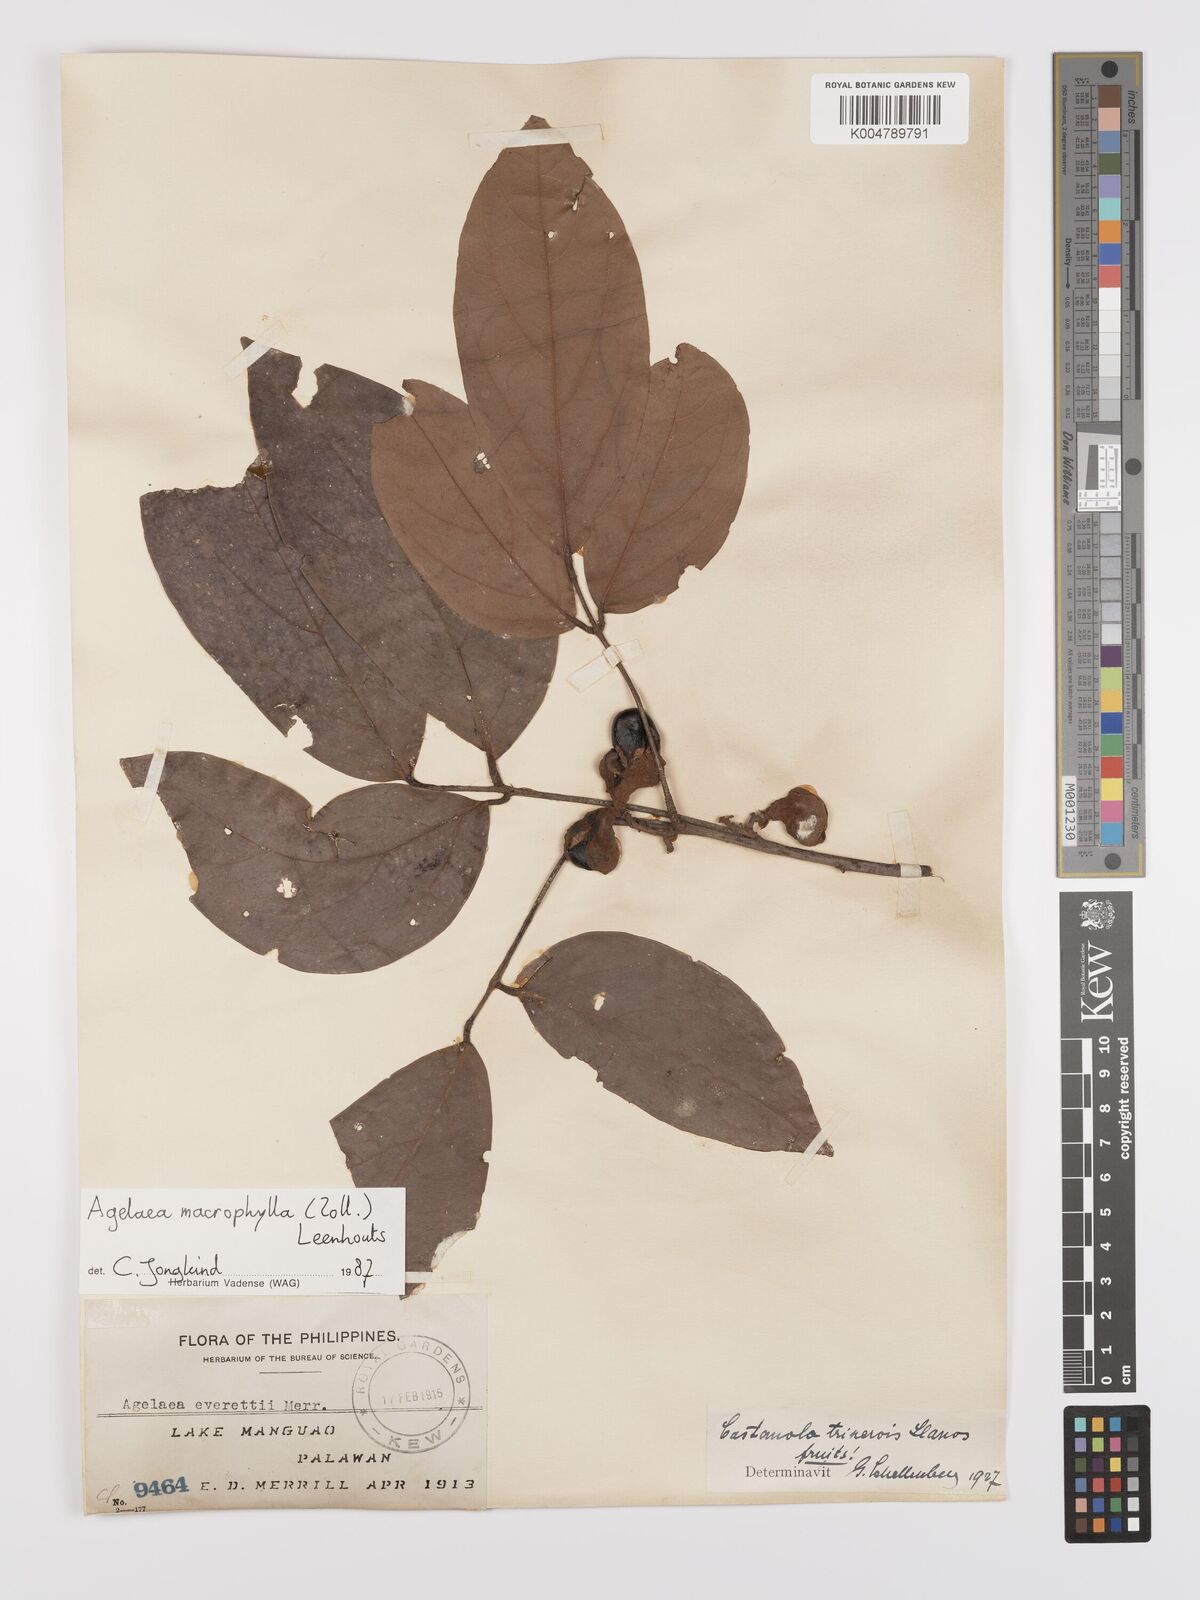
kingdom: Plantae
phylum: Tracheophyta
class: Magnoliopsida
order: Oxalidales
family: Connaraceae
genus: Agelaea
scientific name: Agelaea trinervis
